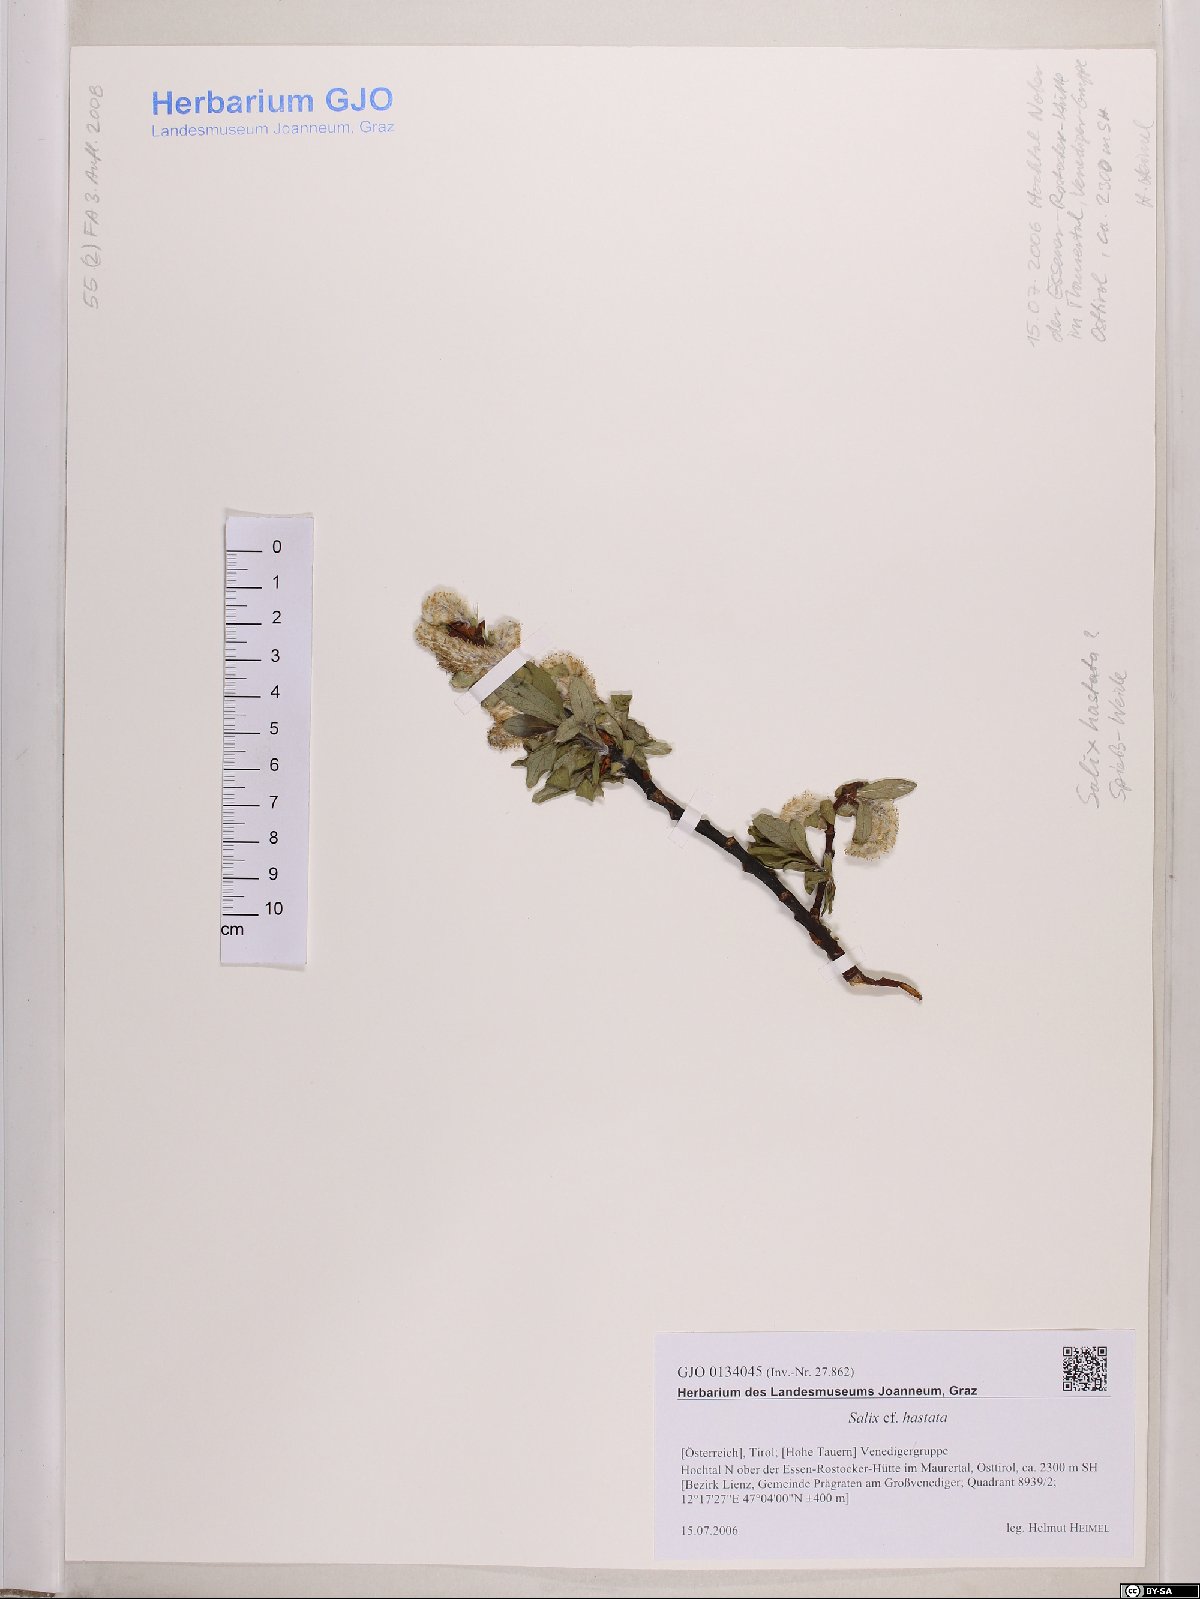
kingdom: Plantae
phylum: Tracheophyta
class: Magnoliopsida
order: Malpighiales
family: Salicaceae
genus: Salix
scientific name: Salix hastata
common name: Halberd willow
